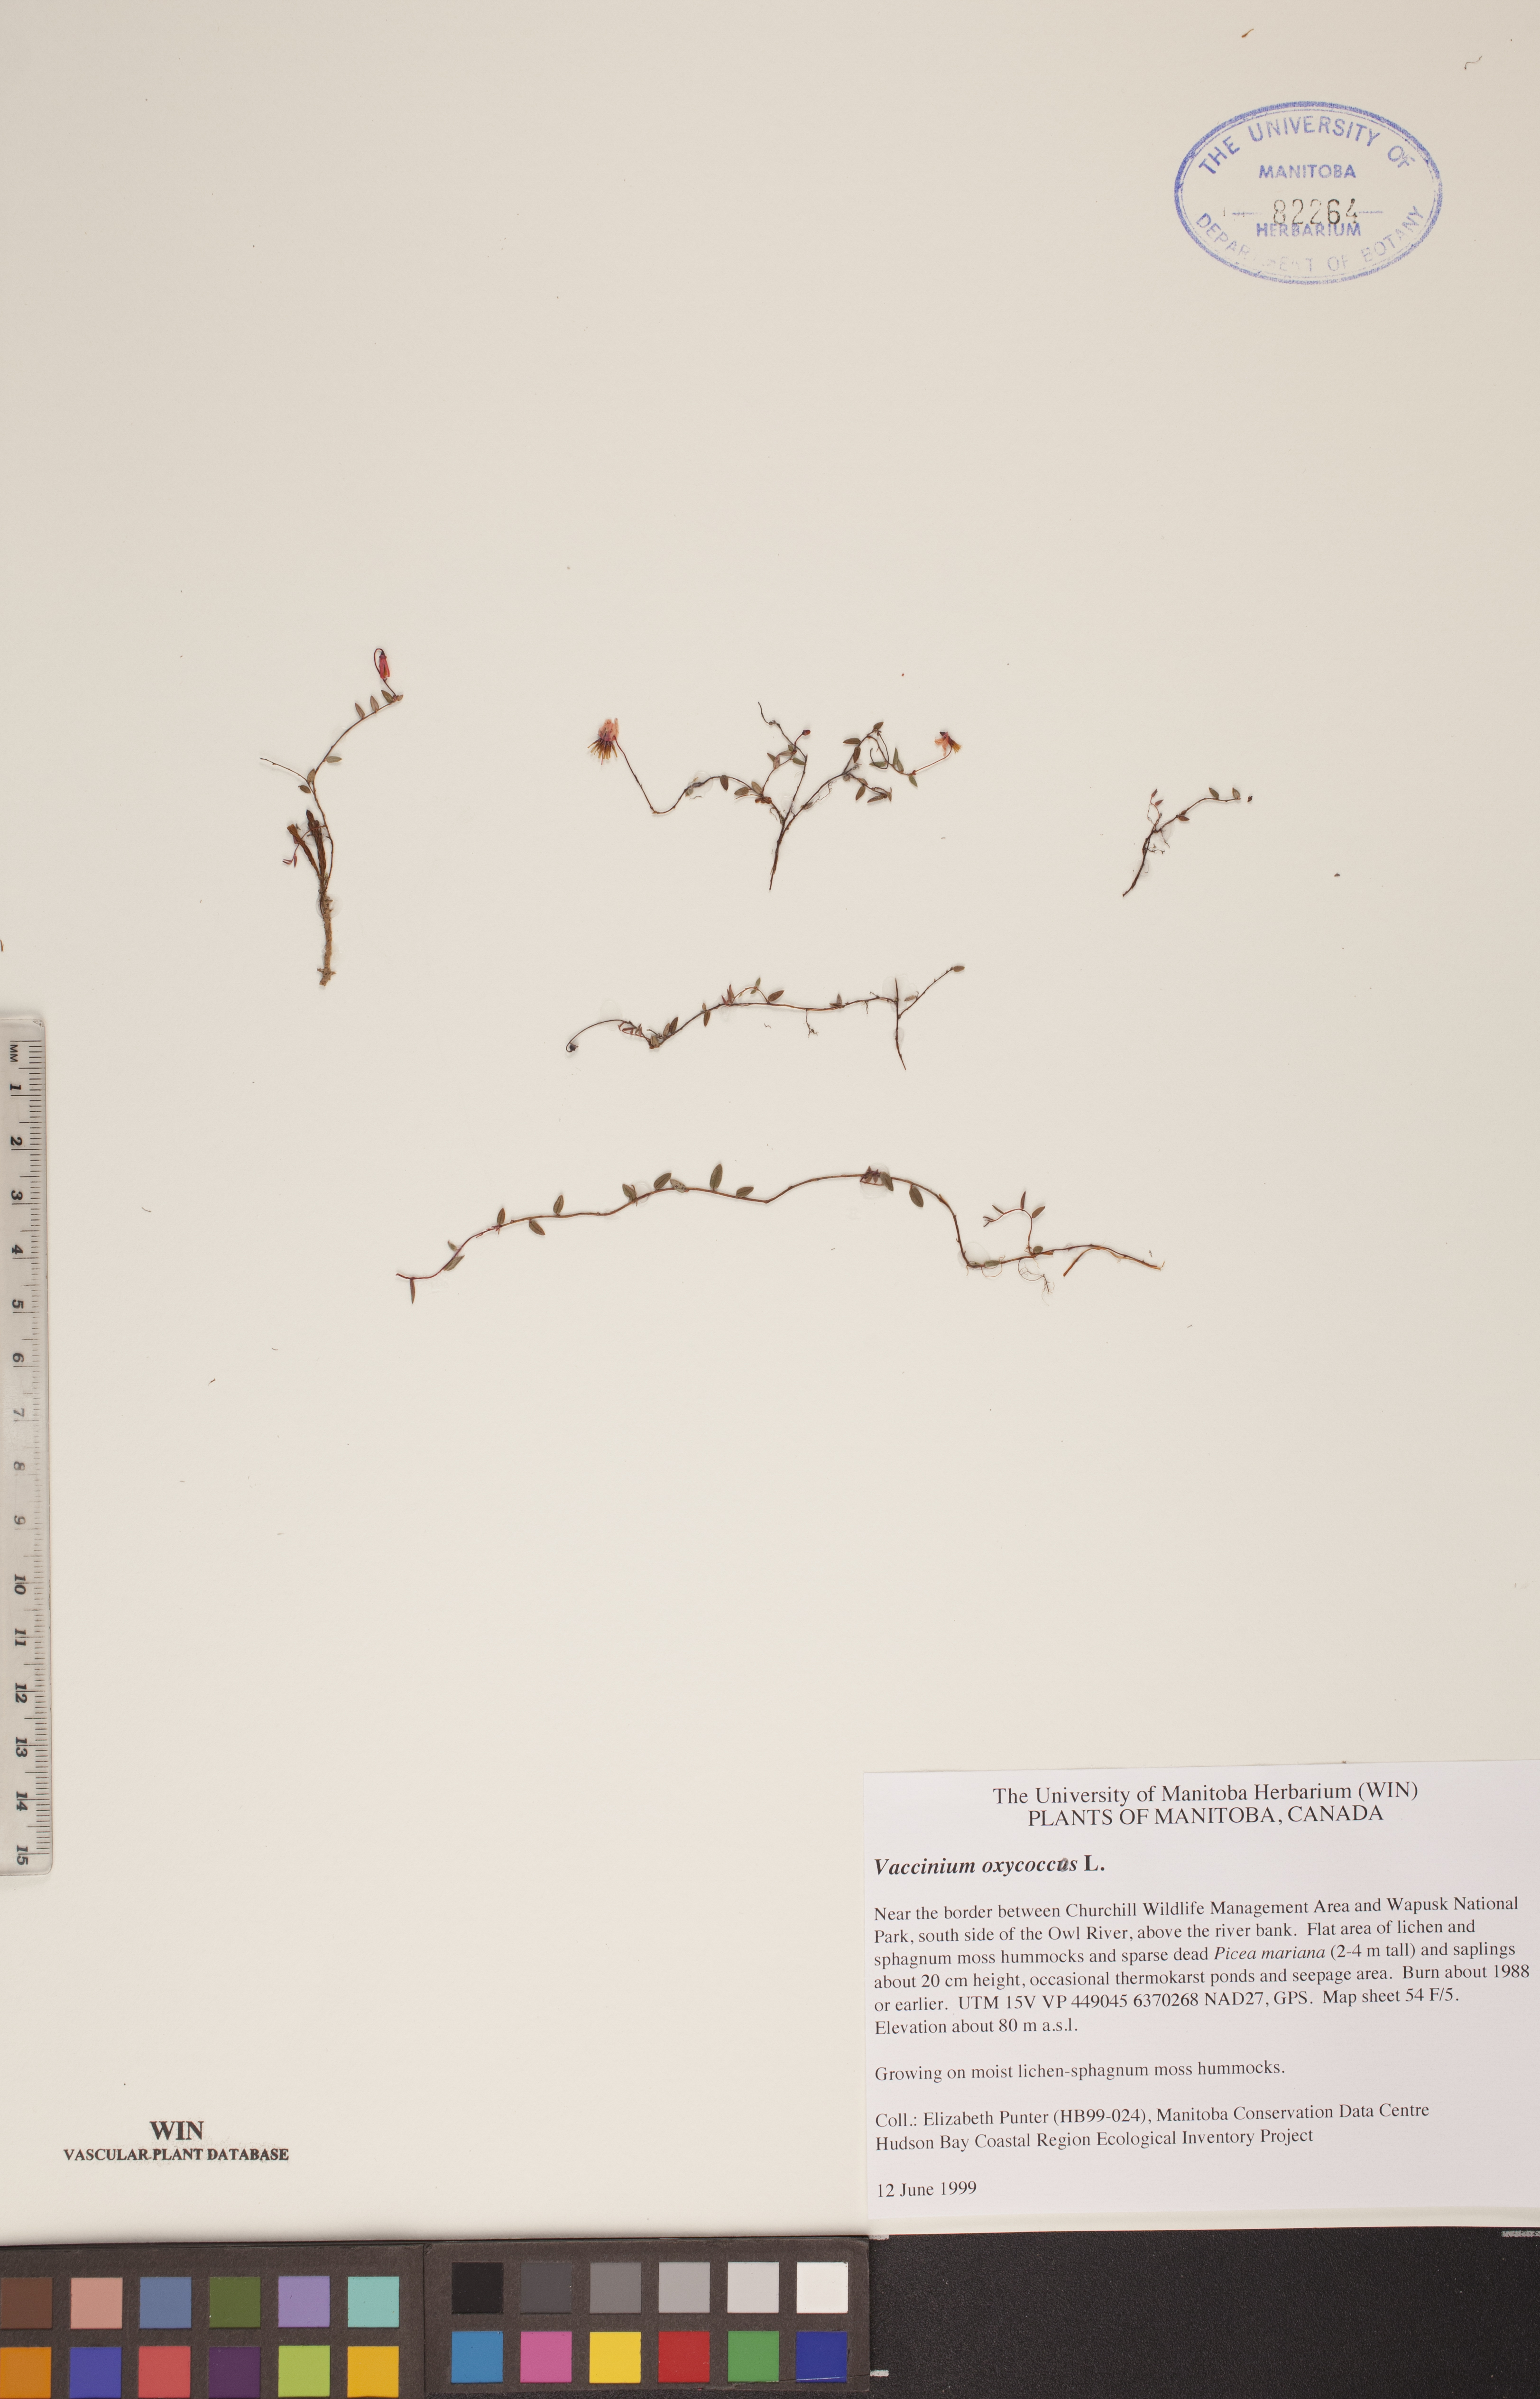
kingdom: Plantae
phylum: Tracheophyta
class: Magnoliopsida
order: Ericales
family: Ericaceae
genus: Vaccinium
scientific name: Vaccinium oxycoccos
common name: Cranberry
